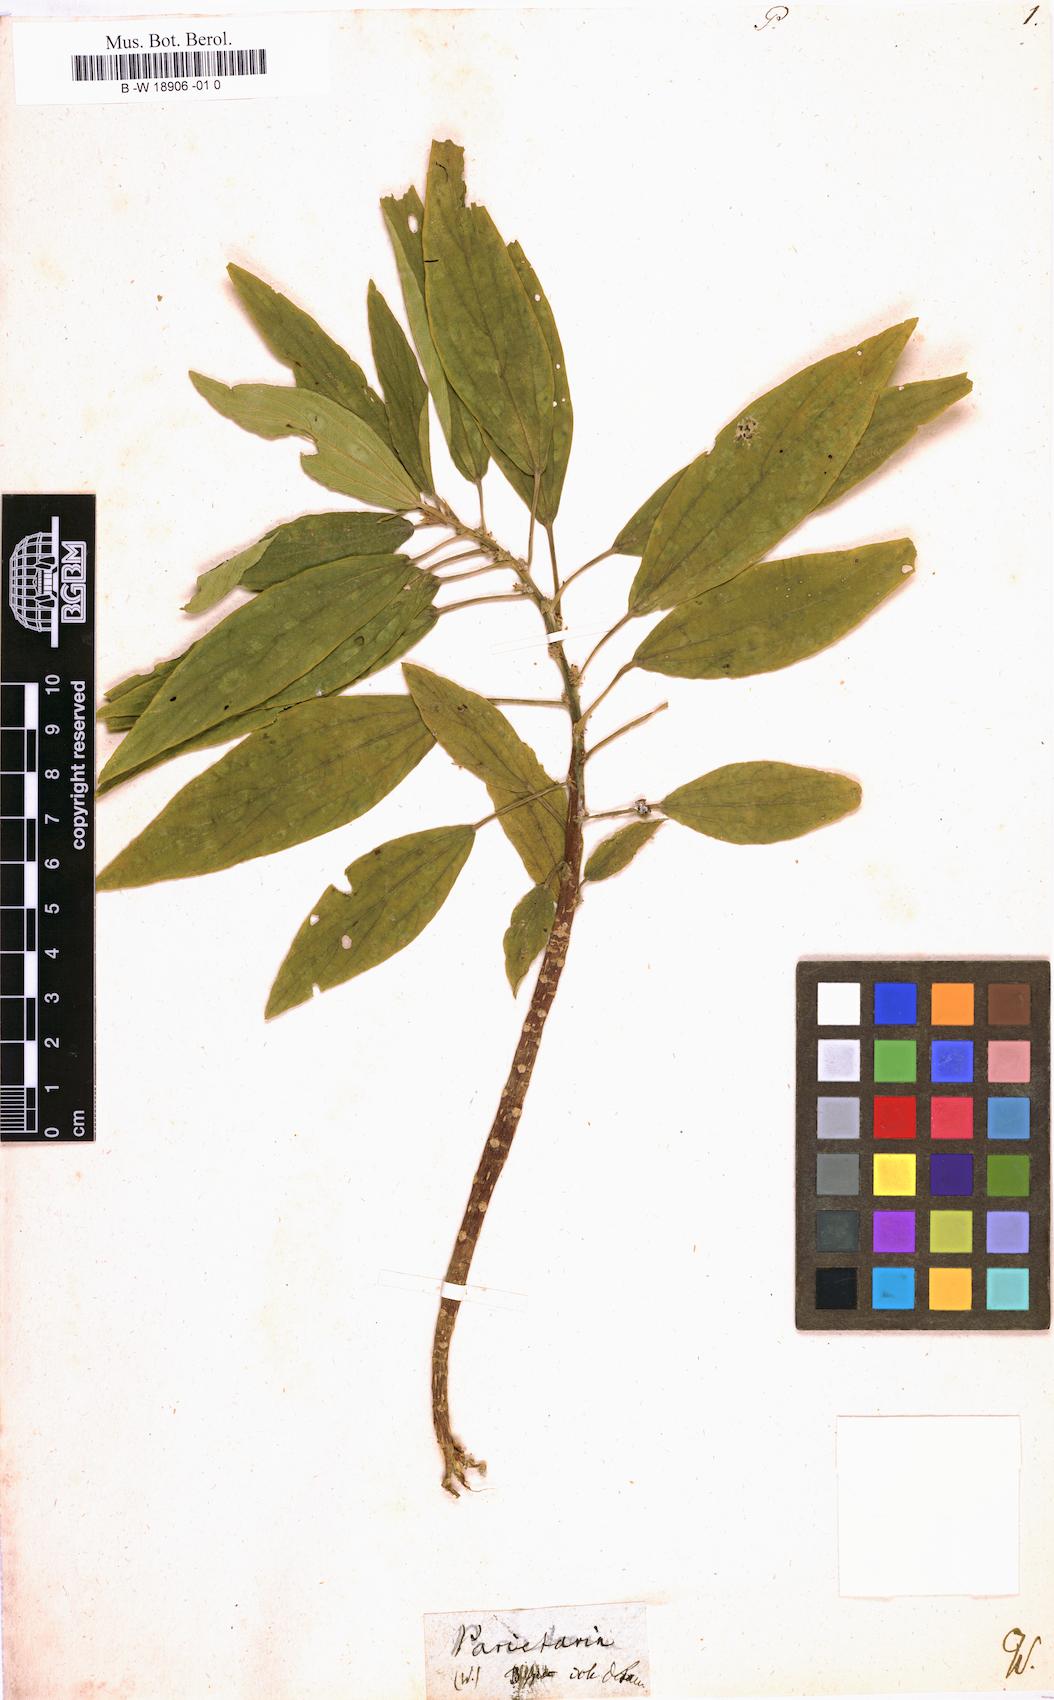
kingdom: Plantae
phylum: Tracheophyta
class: Magnoliopsida
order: Rosales
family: Urticaceae
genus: Parietaria
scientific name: Parietaria
